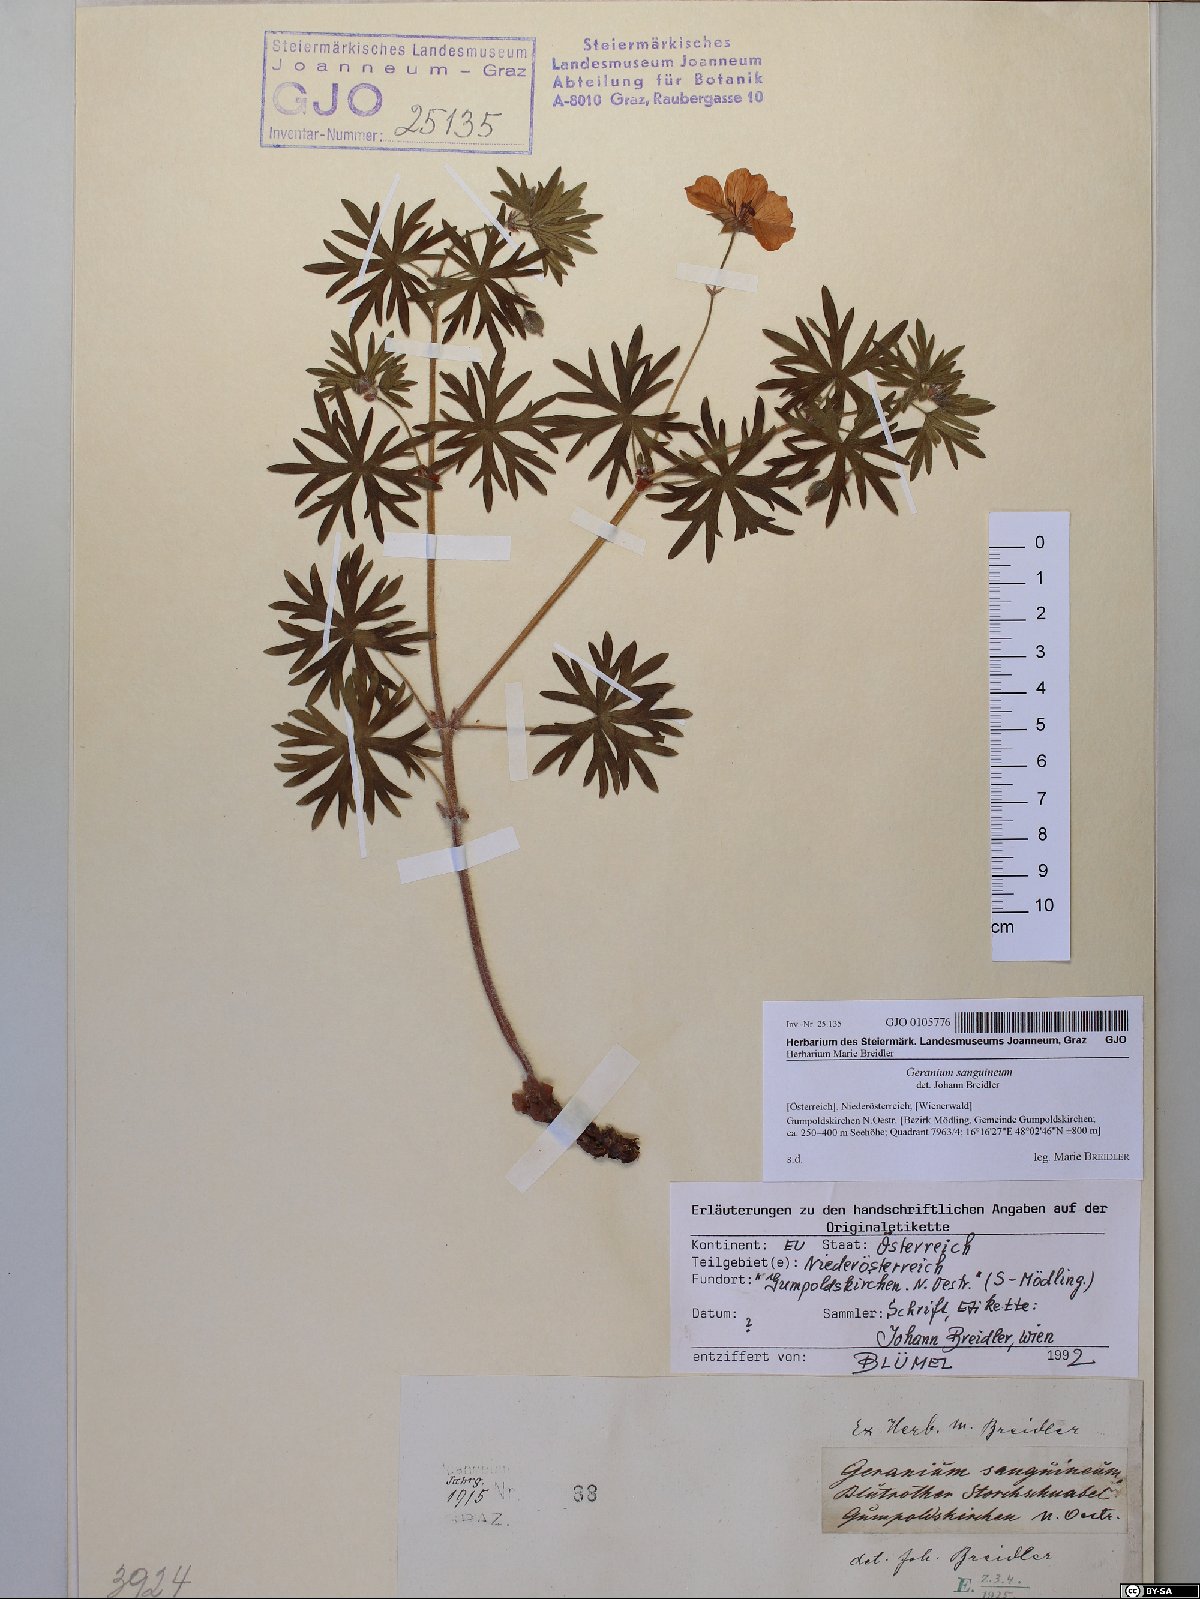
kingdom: Plantae
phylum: Tracheophyta
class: Magnoliopsida
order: Geraniales
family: Geraniaceae
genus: Geranium
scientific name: Geranium sanguineum
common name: Bloody crane's-bill
